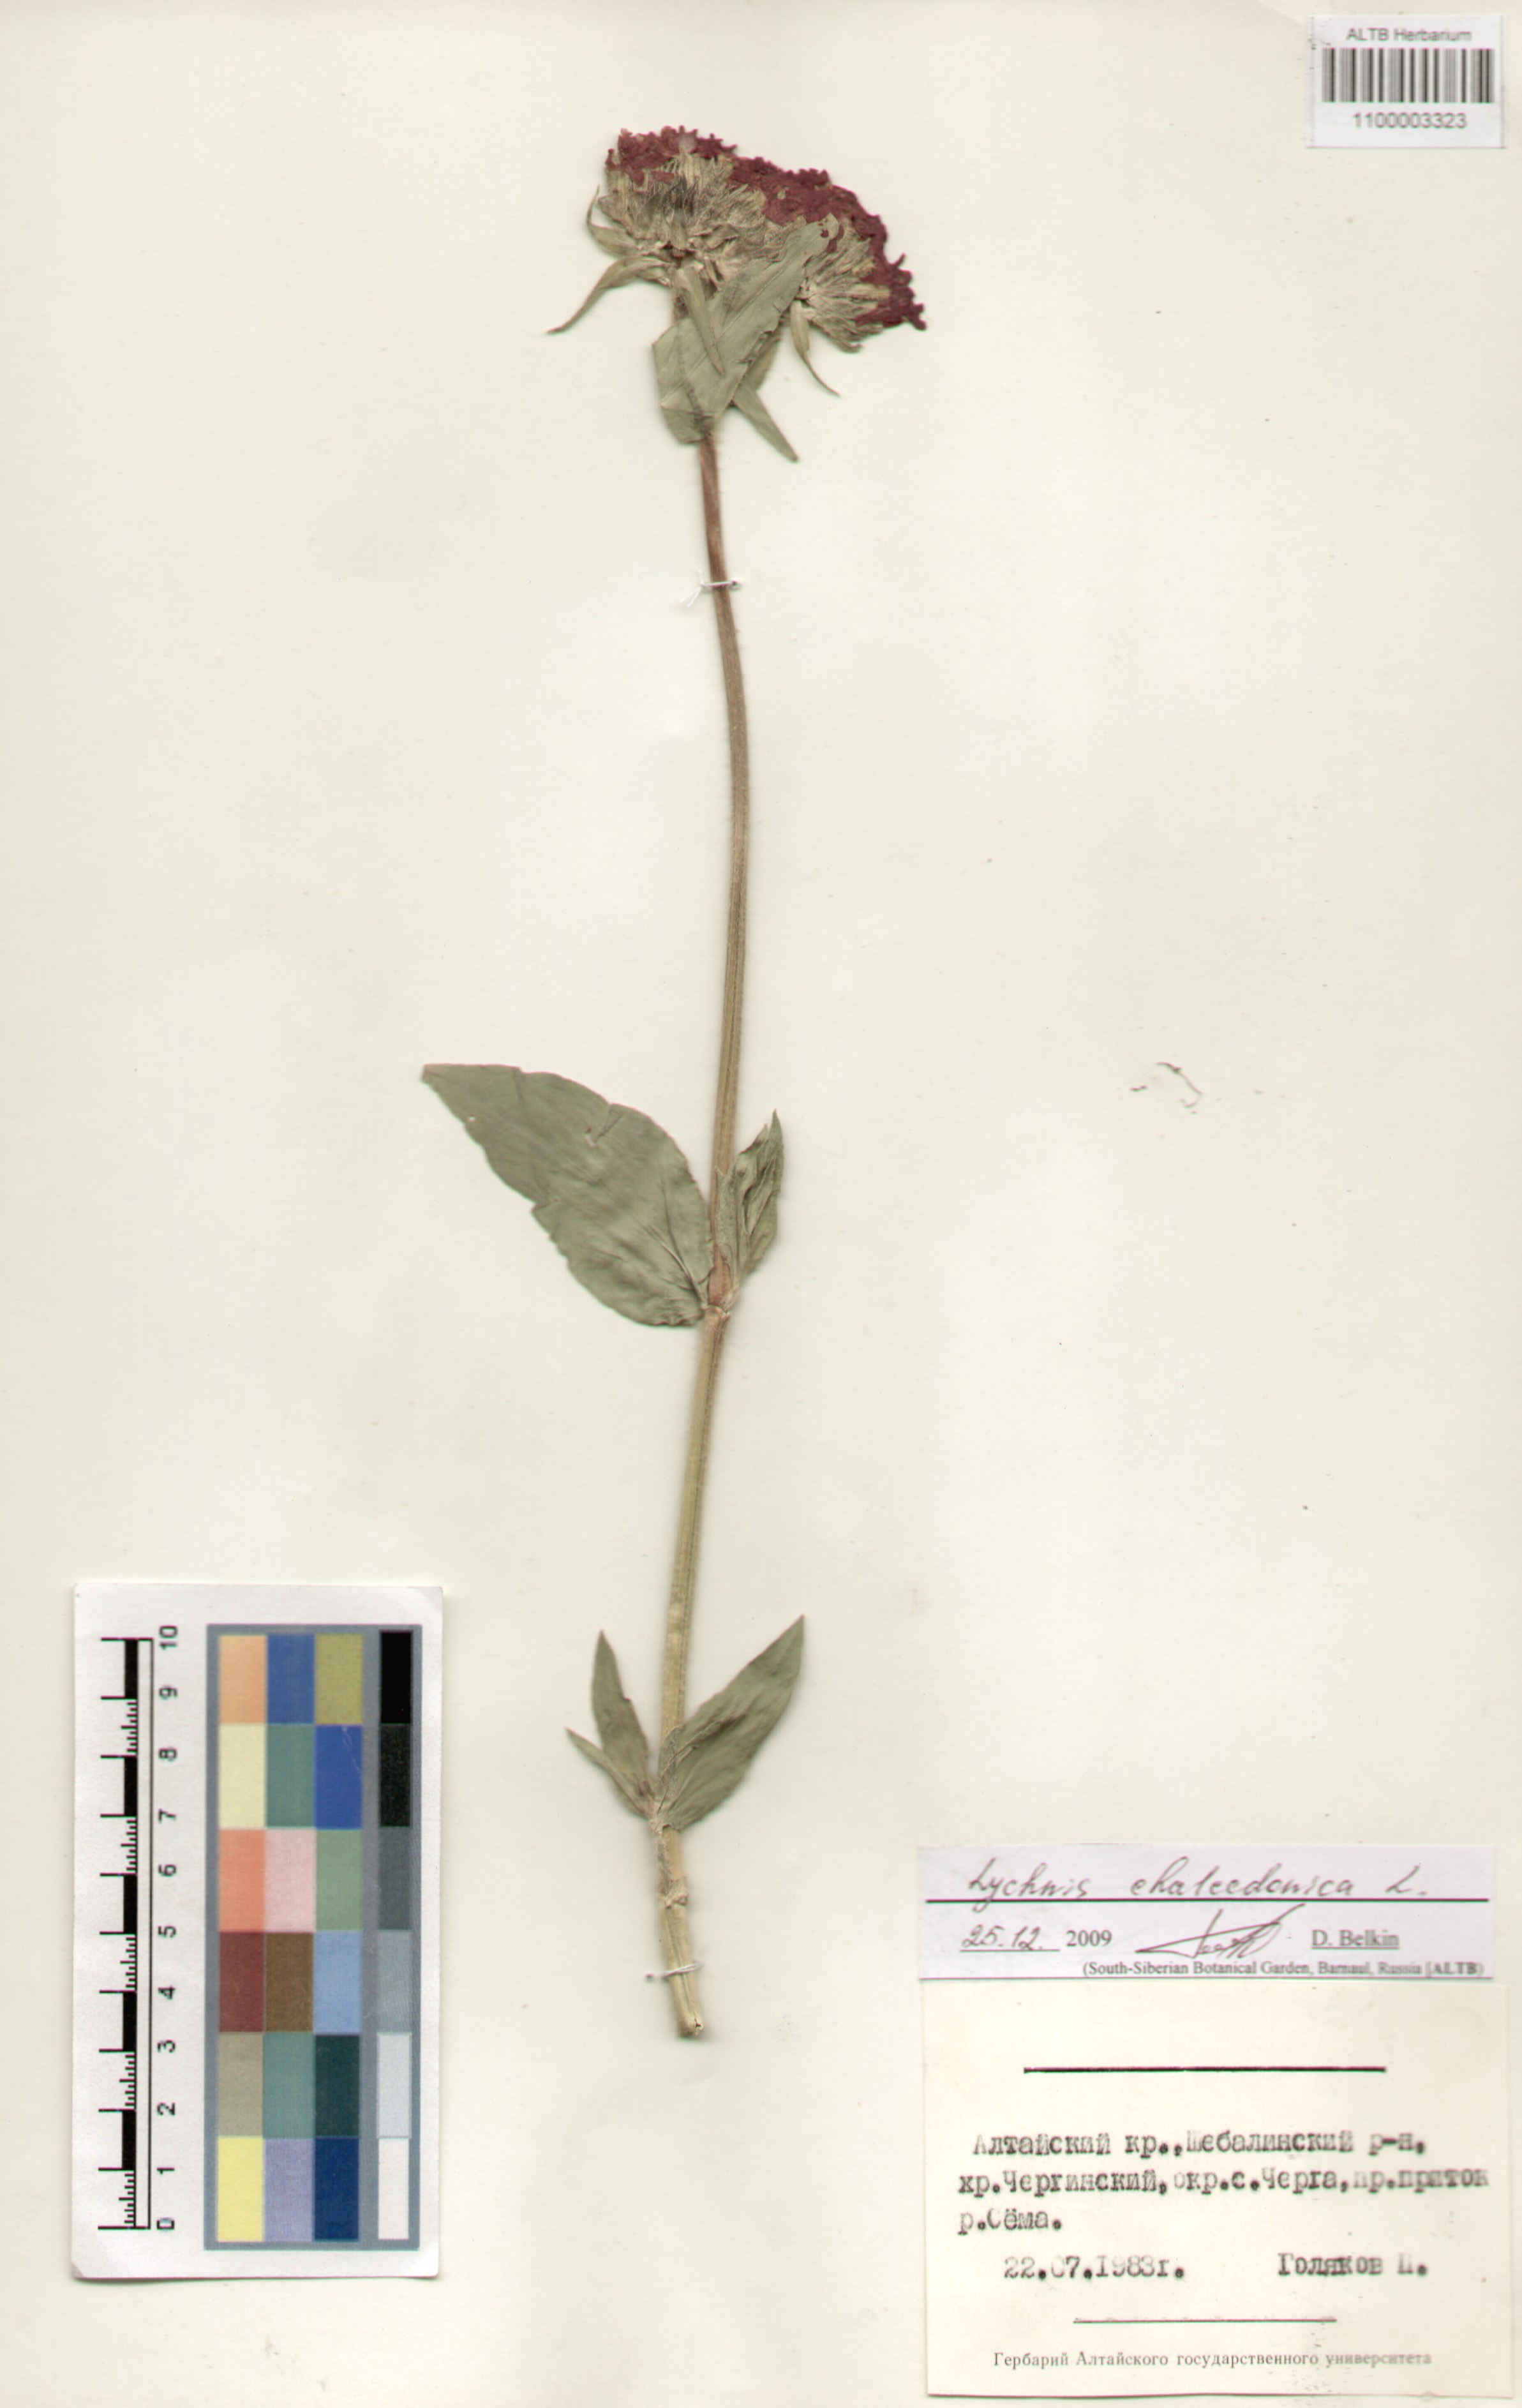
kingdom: Plantae
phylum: Tracheophyta
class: Magnoliopsida
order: Caryophyllales
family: Caryophyllaceae
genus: Silene
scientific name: Silene chalcedonica
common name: Maltese-cross
